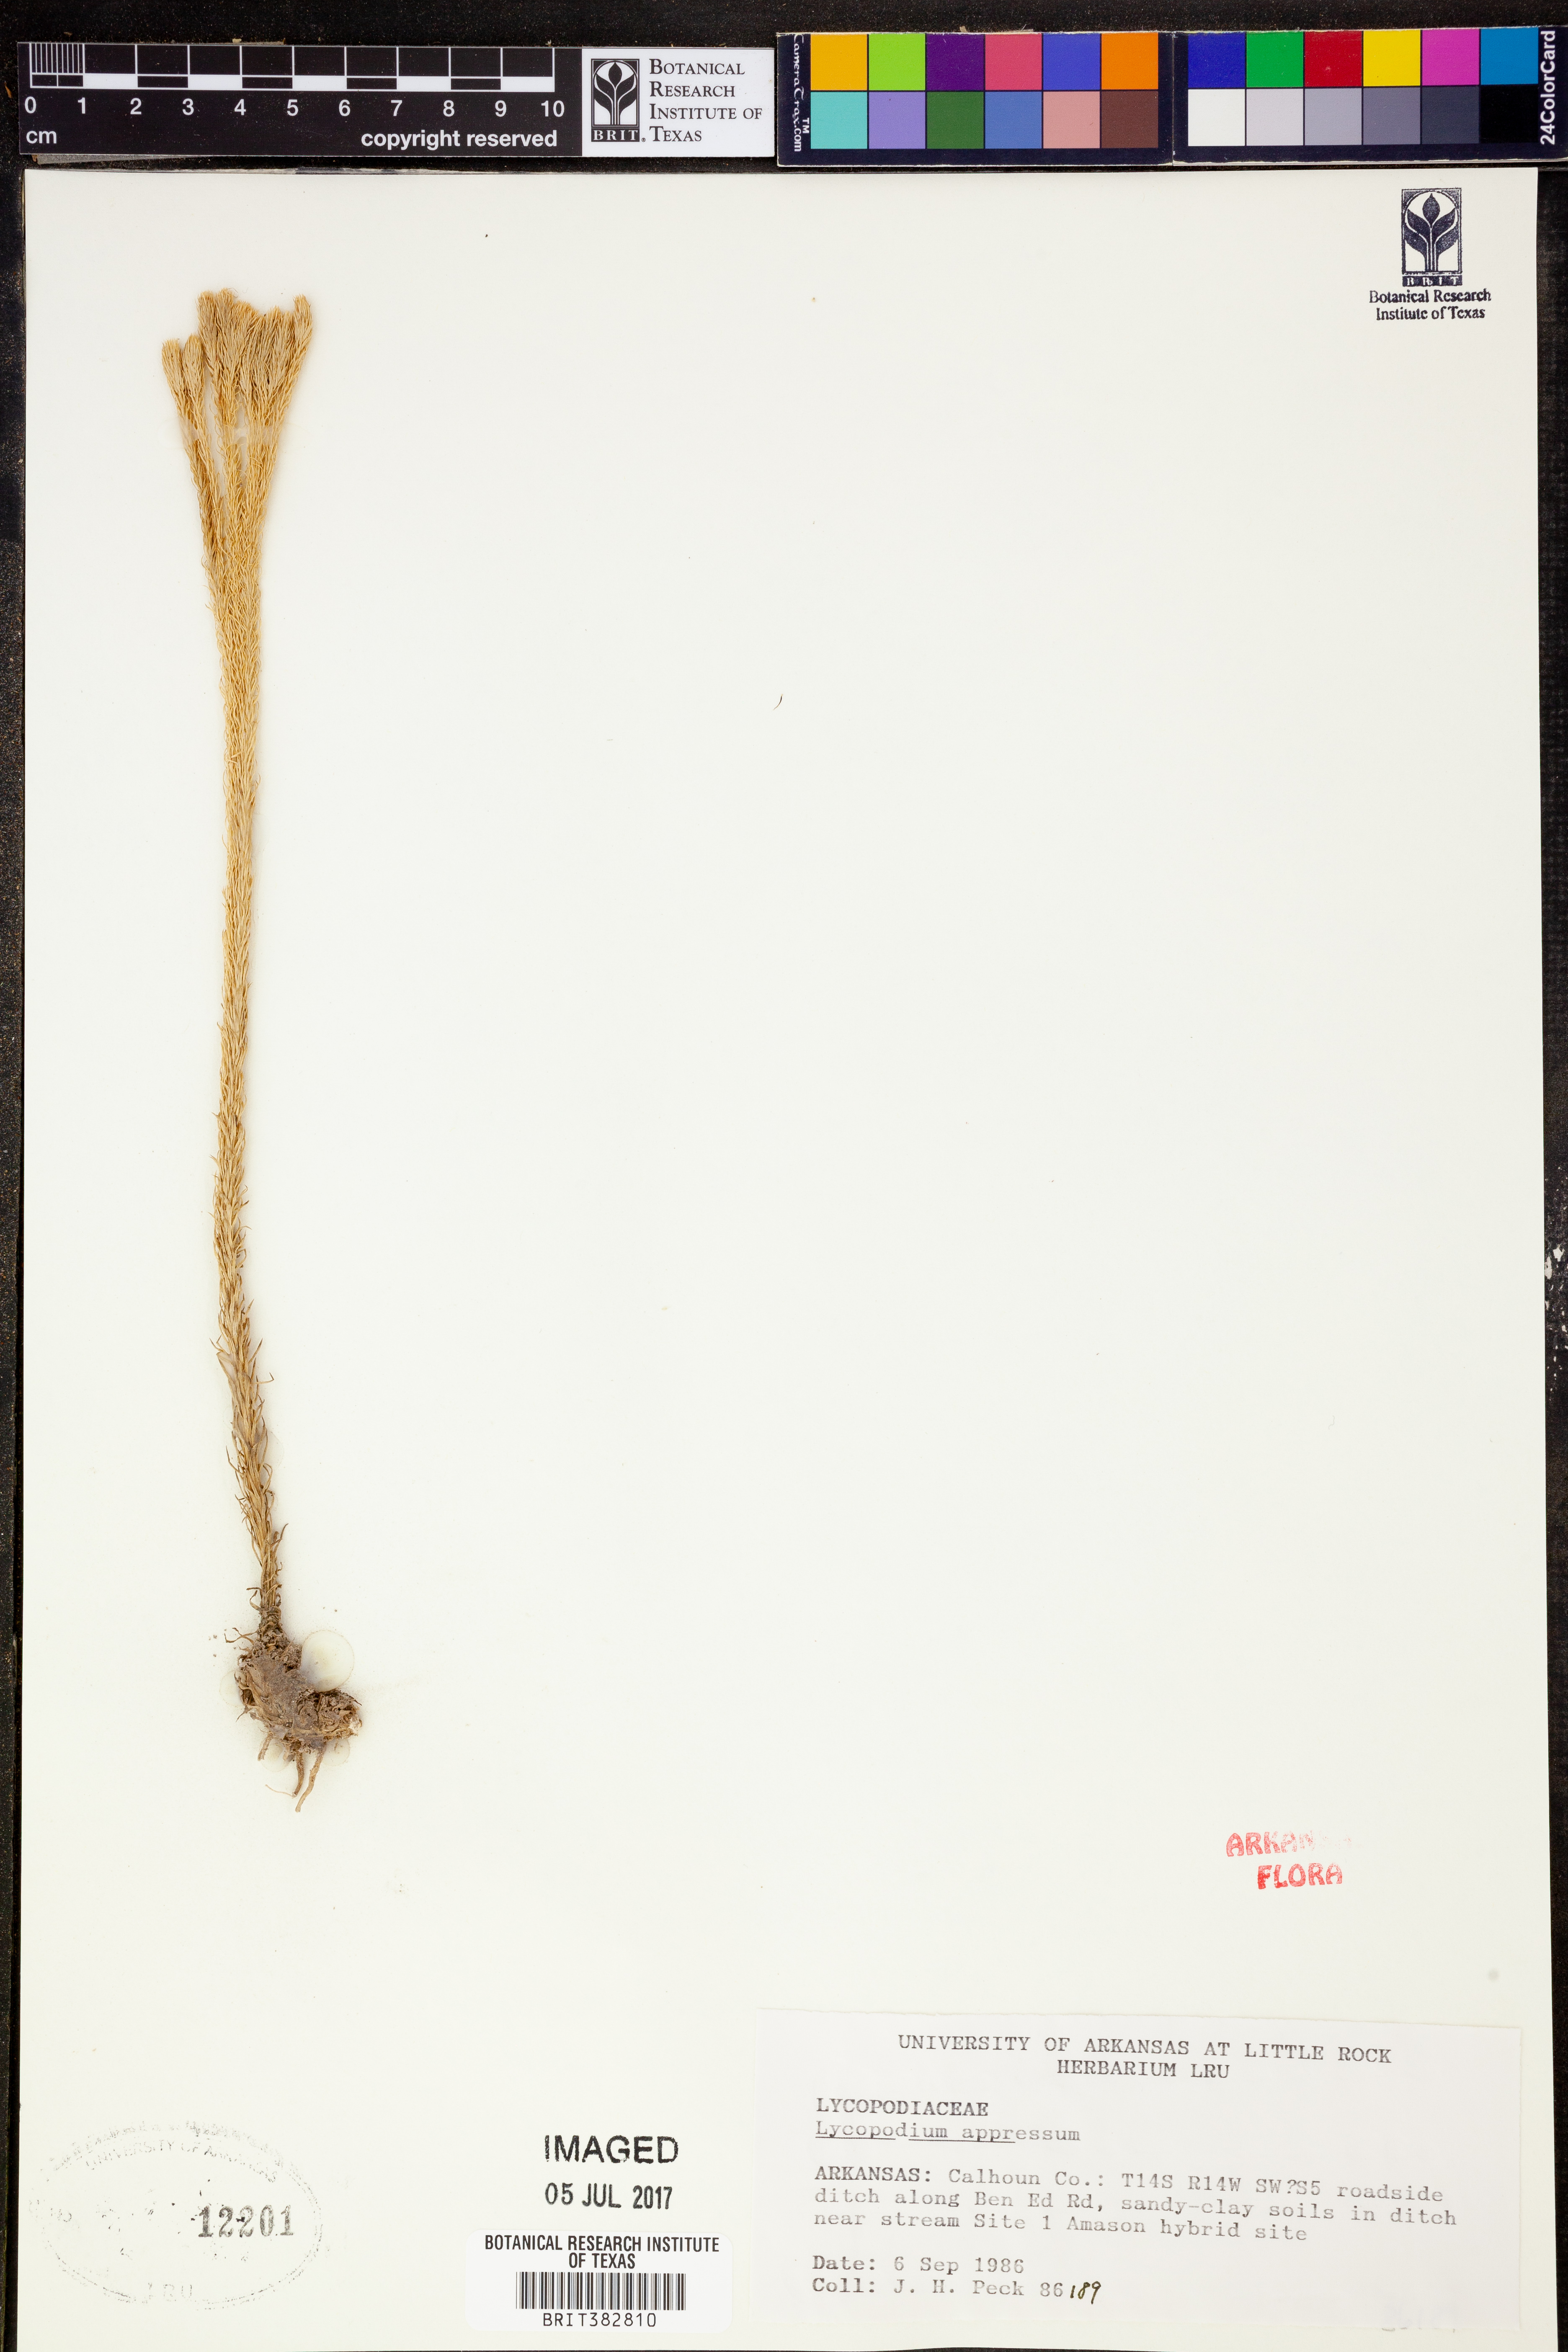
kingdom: Plantae
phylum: Tracheophyta
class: Lycopodiopsida
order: Lycopodiales
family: Lycopodiaceae
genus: Lycopodiella
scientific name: Lycopodiella appressa
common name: Appressed bog clubmoss
